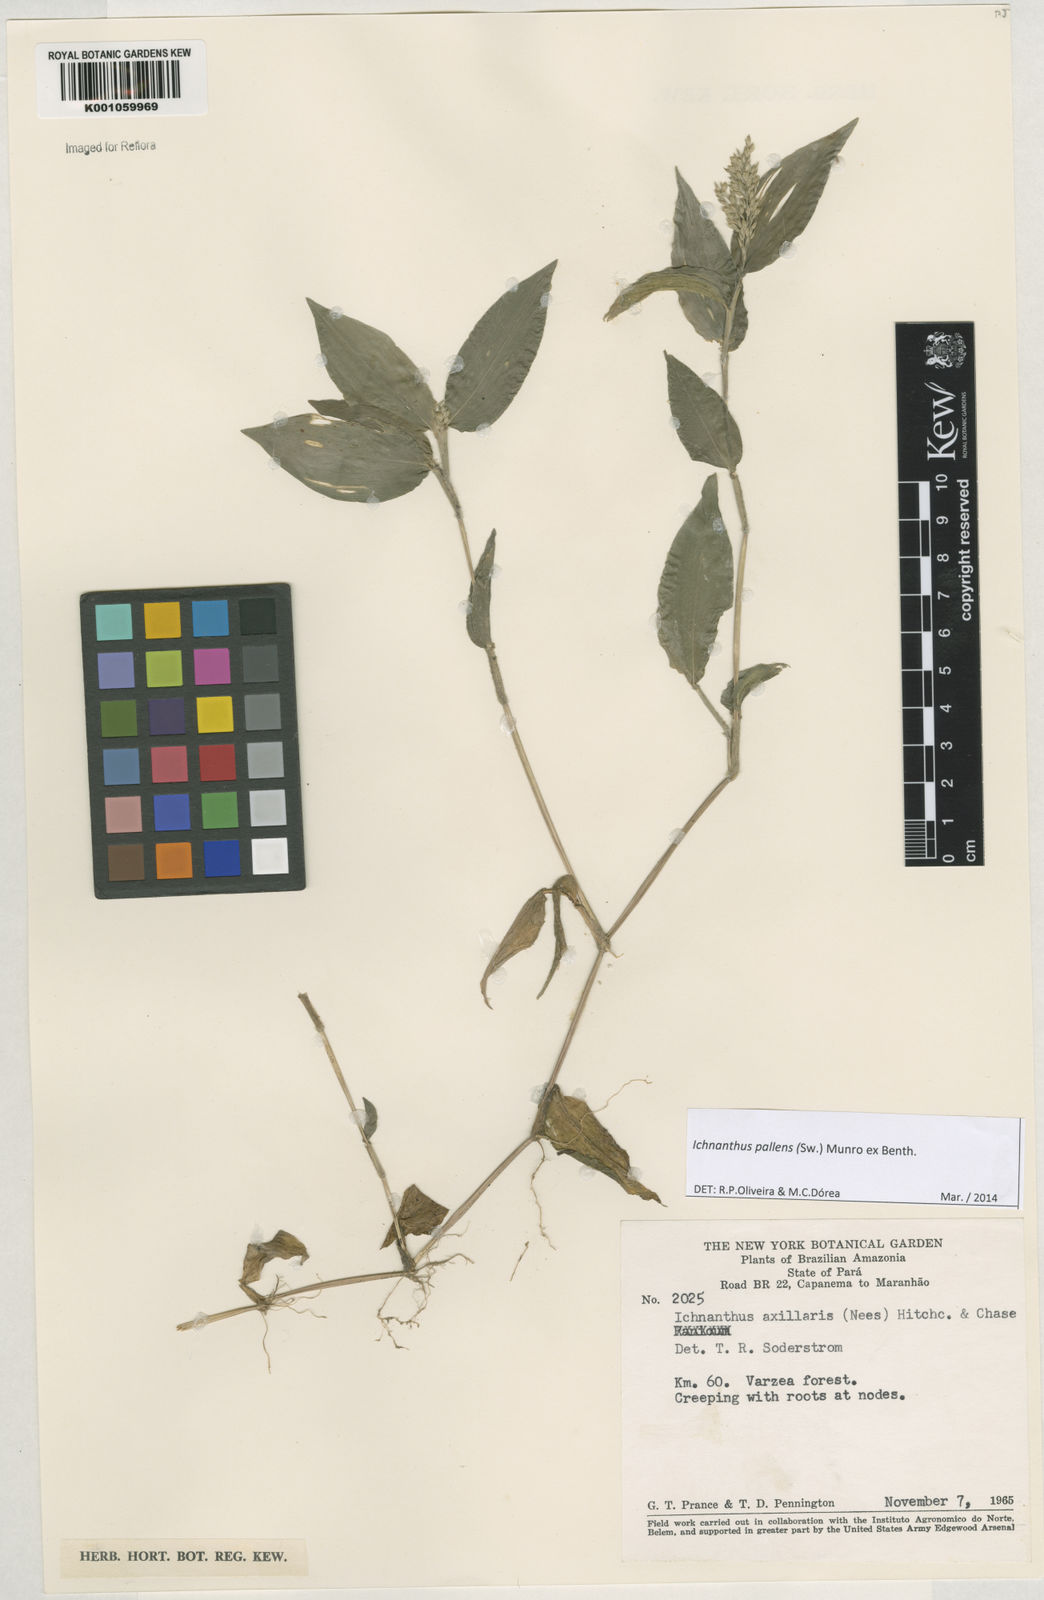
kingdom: Plantae
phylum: Tracheophyta
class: Liliopsida
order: Poales
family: Poaceae
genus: Ichnanthus
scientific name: Ichnanthus pallens
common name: Water grass
